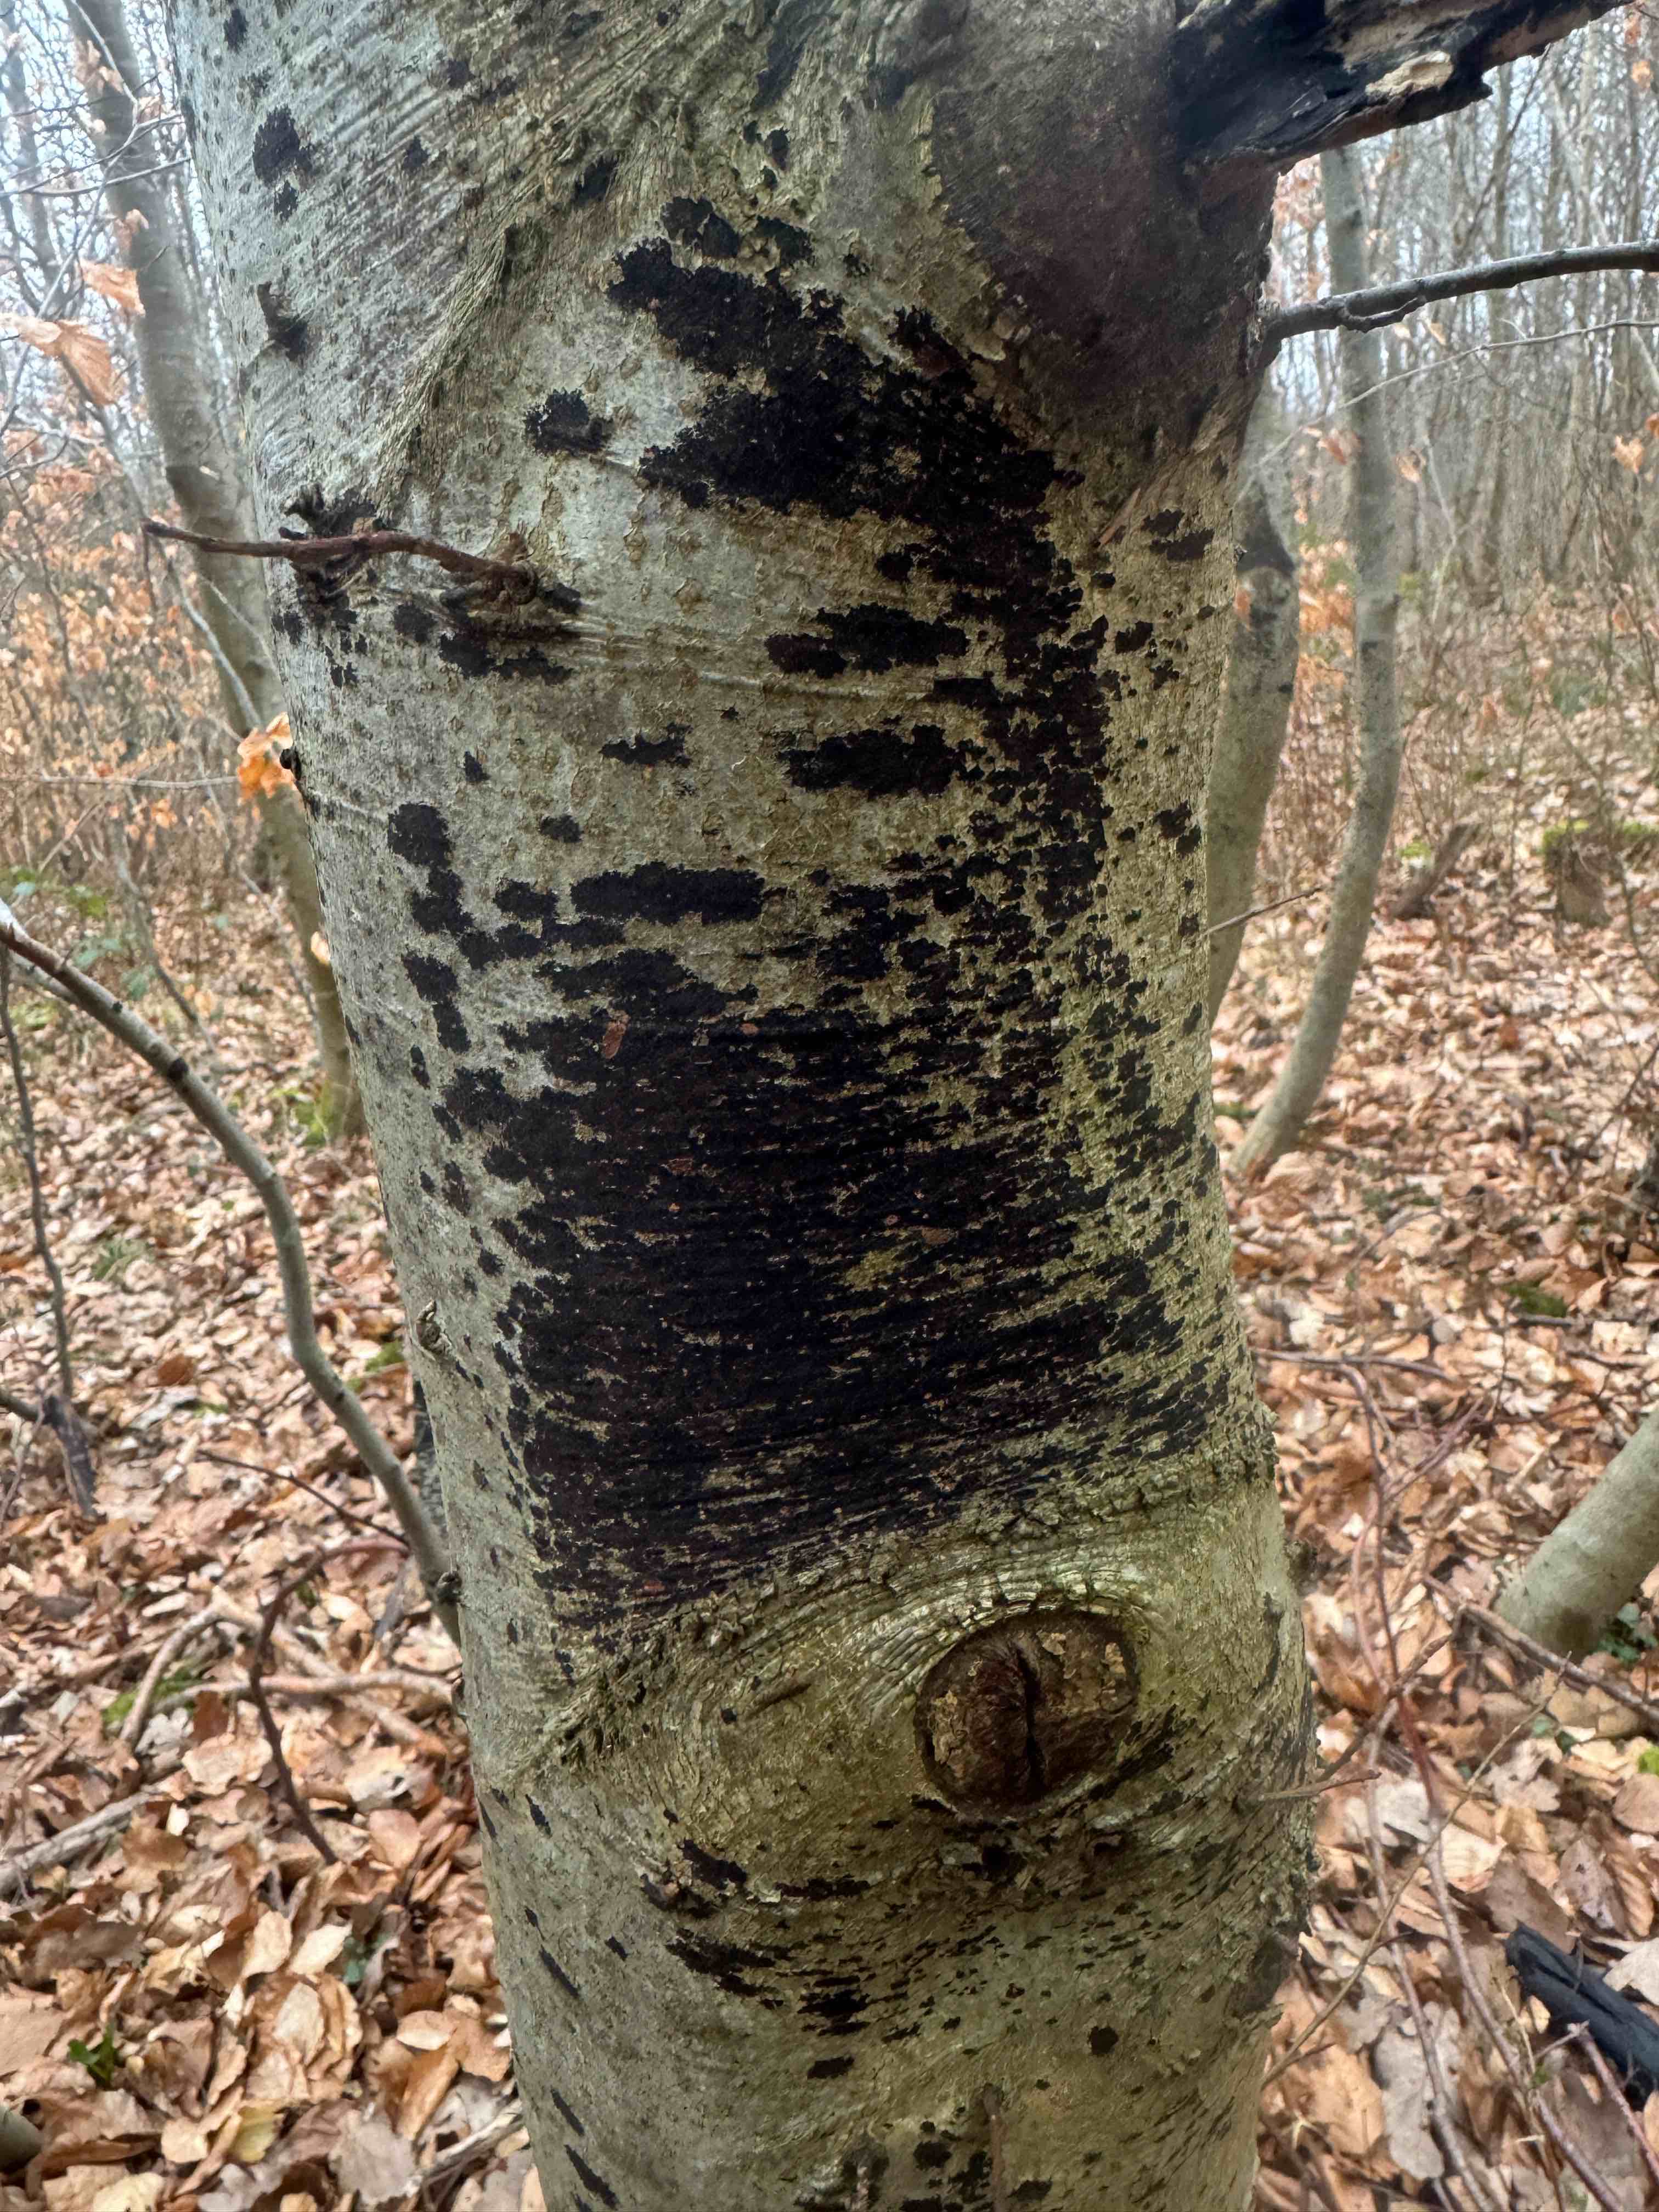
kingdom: Fungi
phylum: Ascomycota
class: Leotiomycetes
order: Rhytismatales
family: Ascodichaenaceae
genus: Ascodichaena
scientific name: Ascodichaena rugosa
